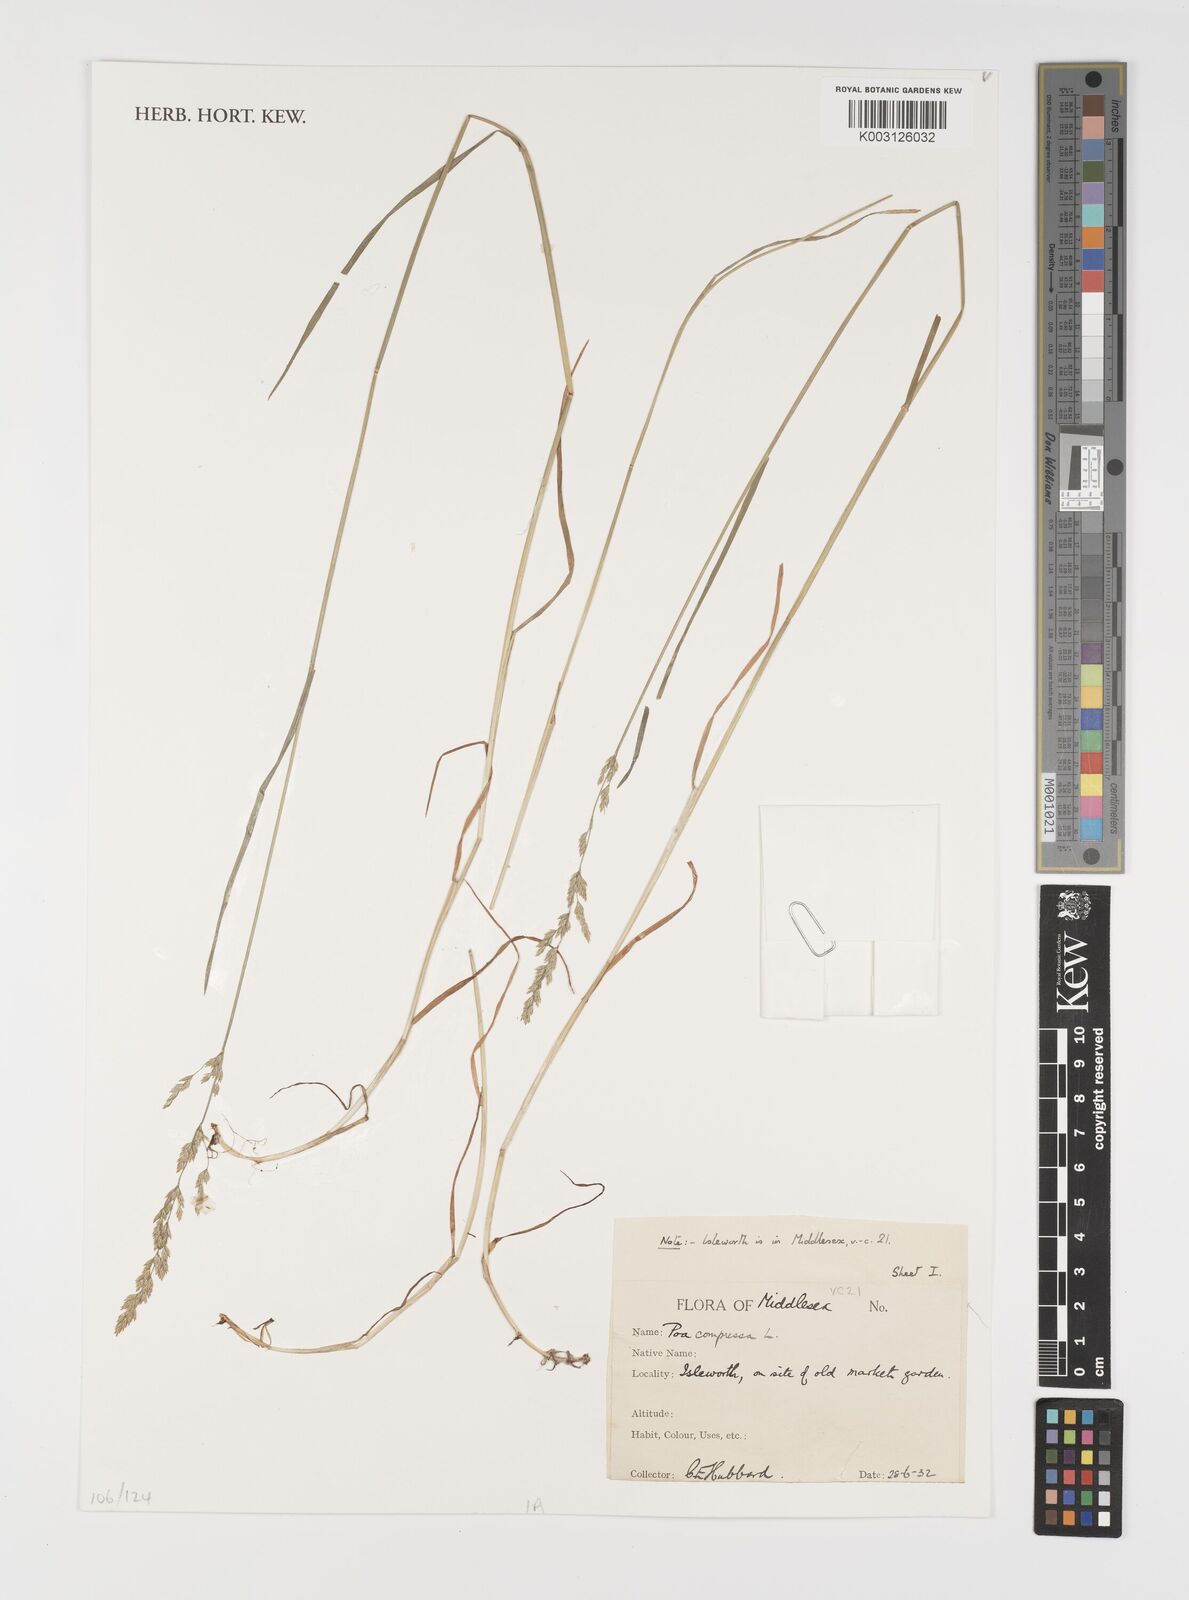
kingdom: Plantae
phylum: Tracheophyta
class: Liliopsida
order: Poales
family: Poaceae
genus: Poa
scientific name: Poa compressa
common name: Canada bluegrass
